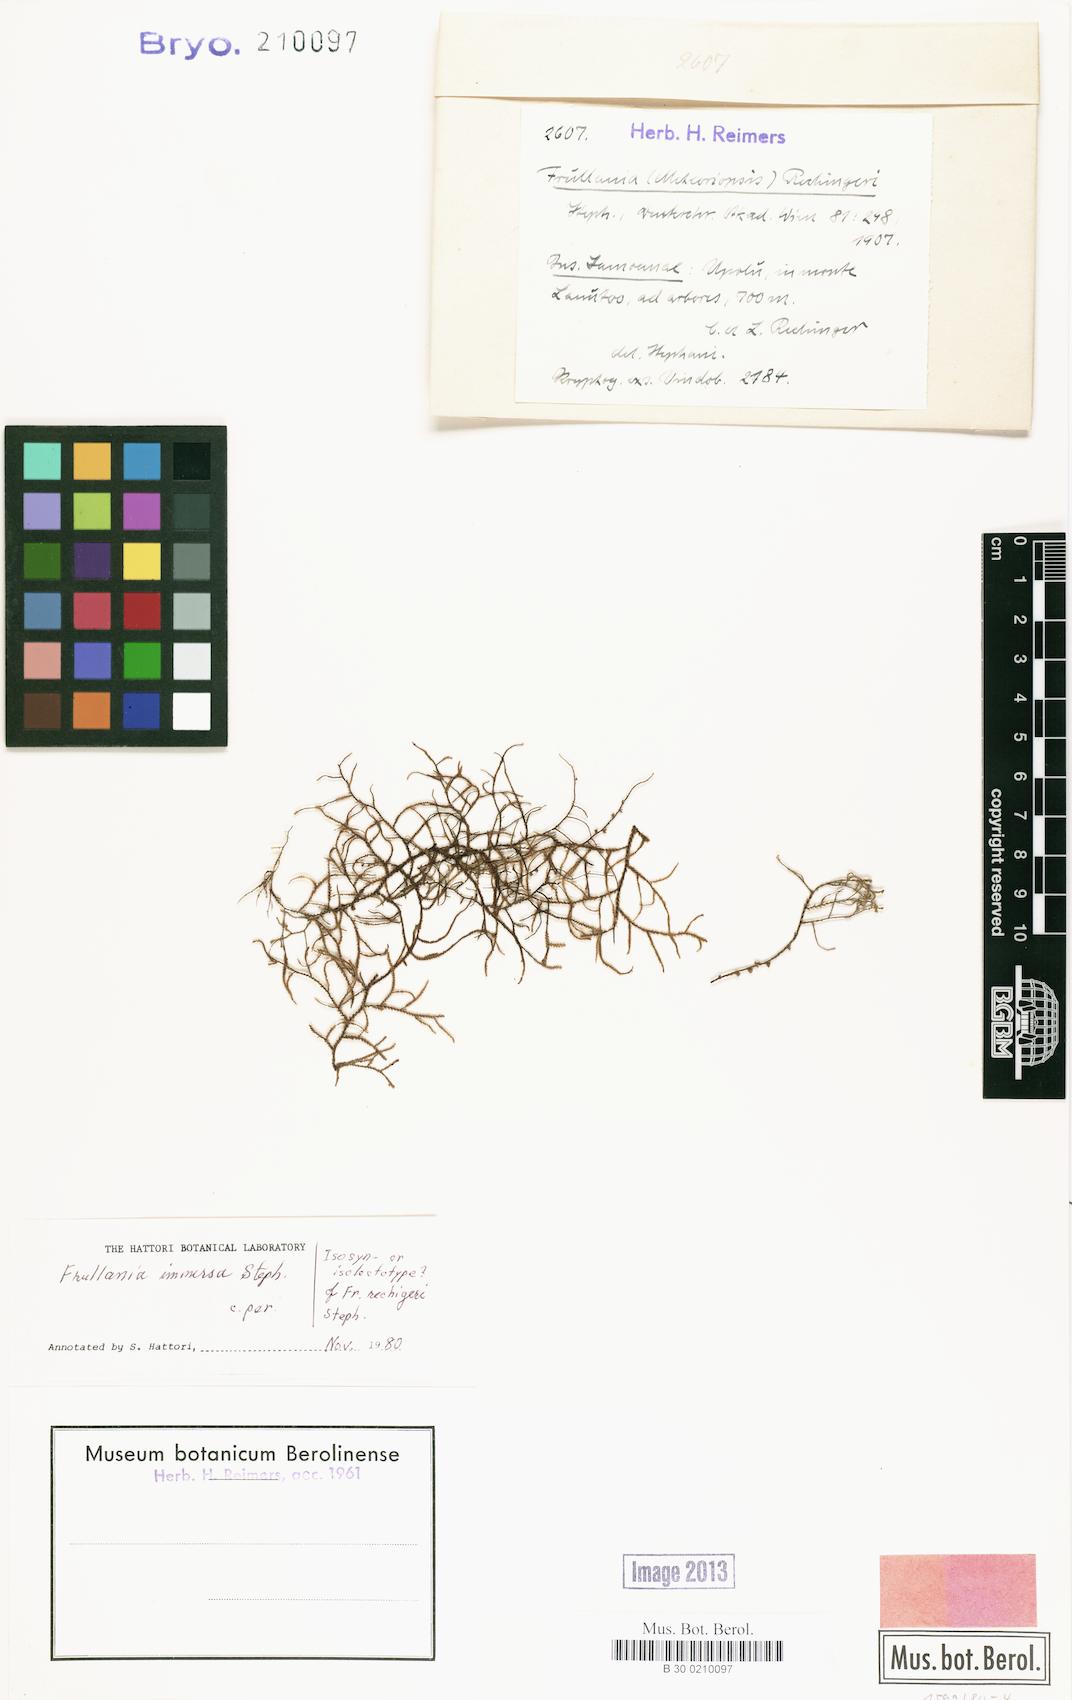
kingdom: Plantae
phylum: Marchantiophyta
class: Jungermanniopsida
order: Porellales
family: Frullaniaceae
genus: Frullania
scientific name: Frullania immersa
